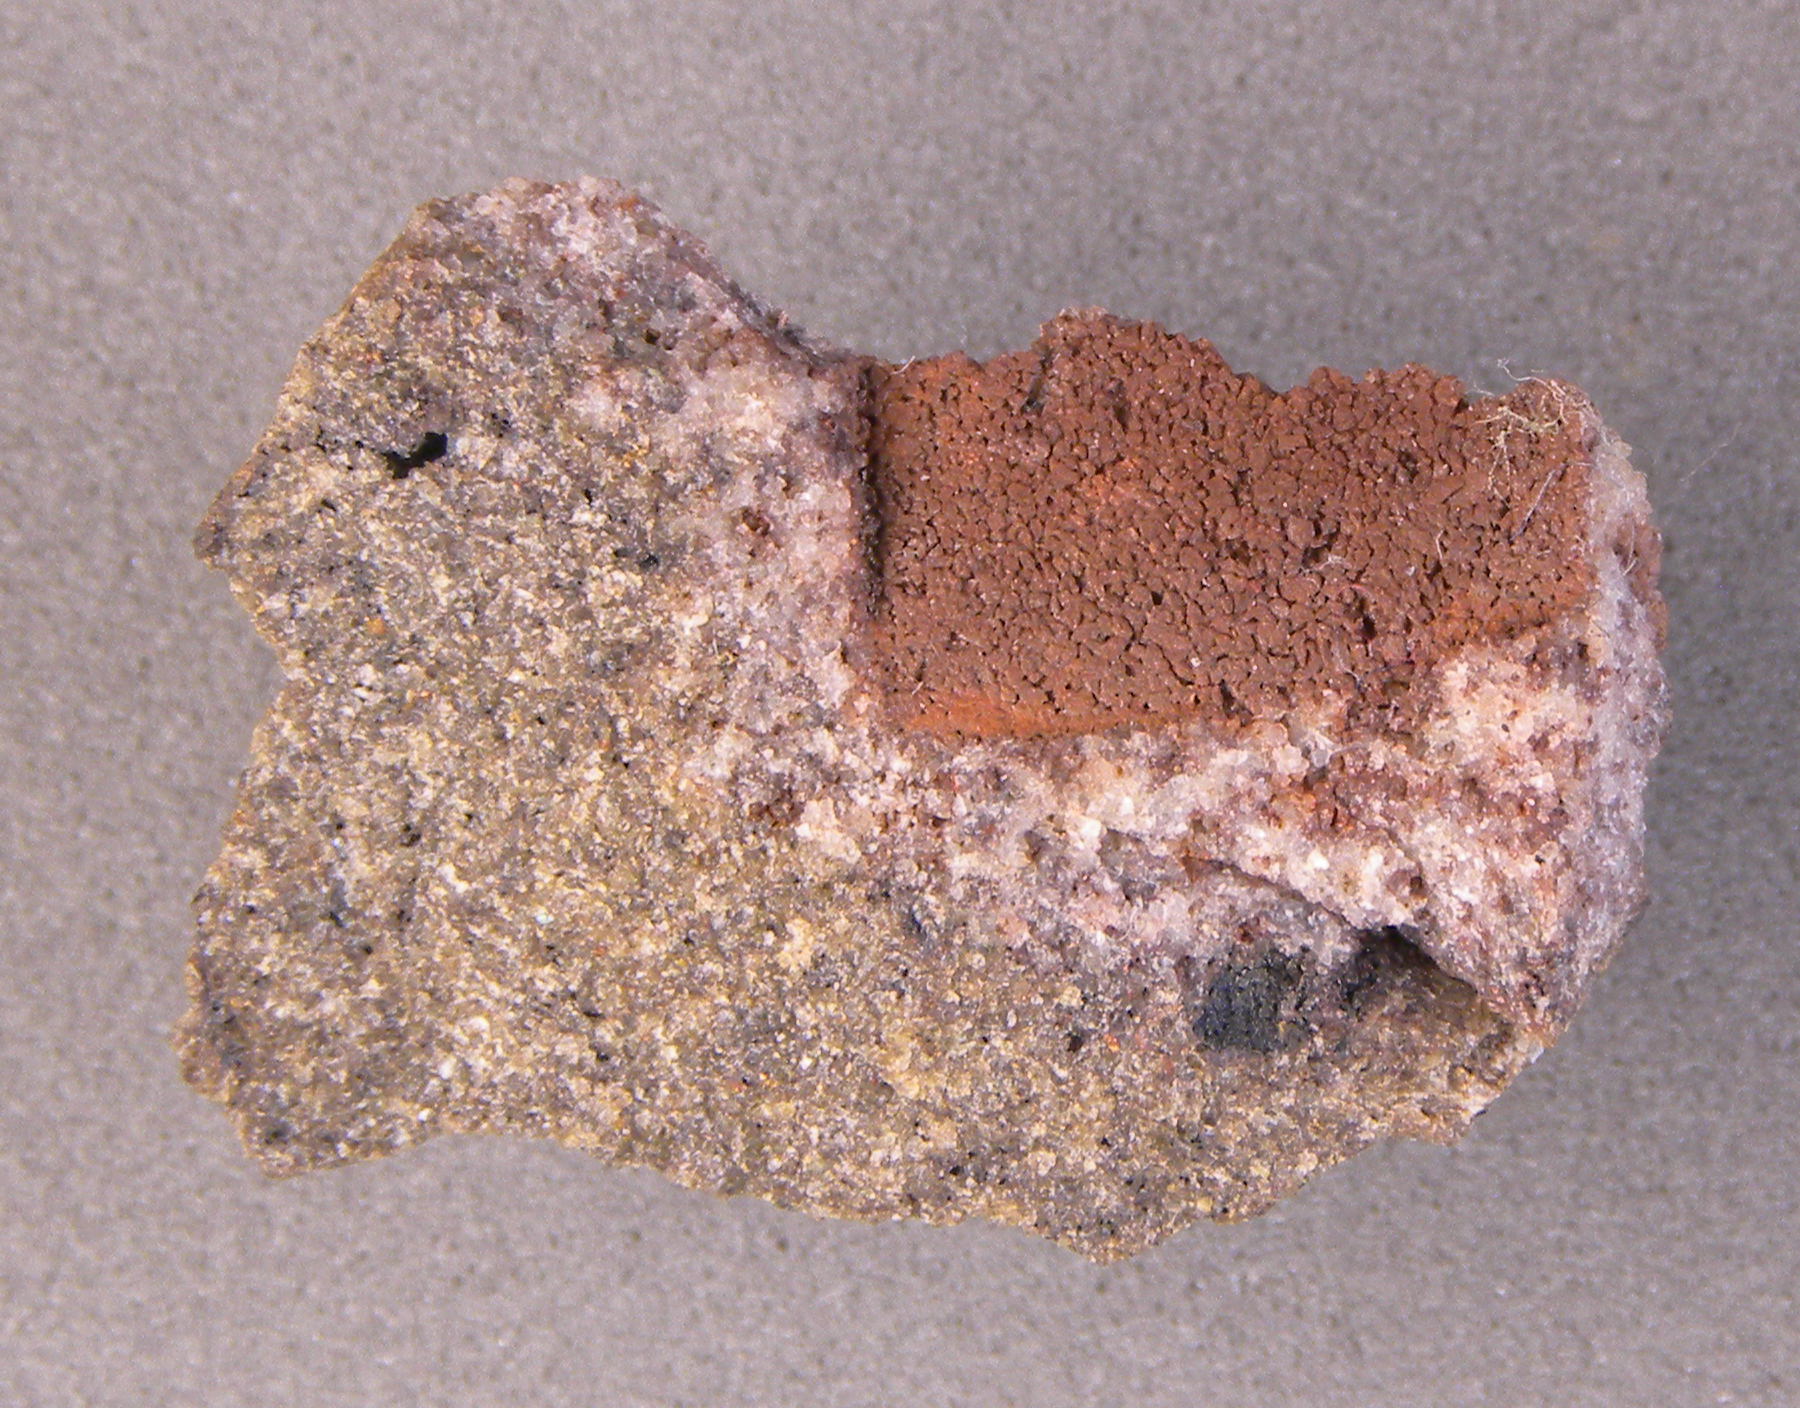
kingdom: Animalia
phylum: Arthropoda
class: Trilobita
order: Phacopida
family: Homalonotidae
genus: Digonus
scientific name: Digonus
